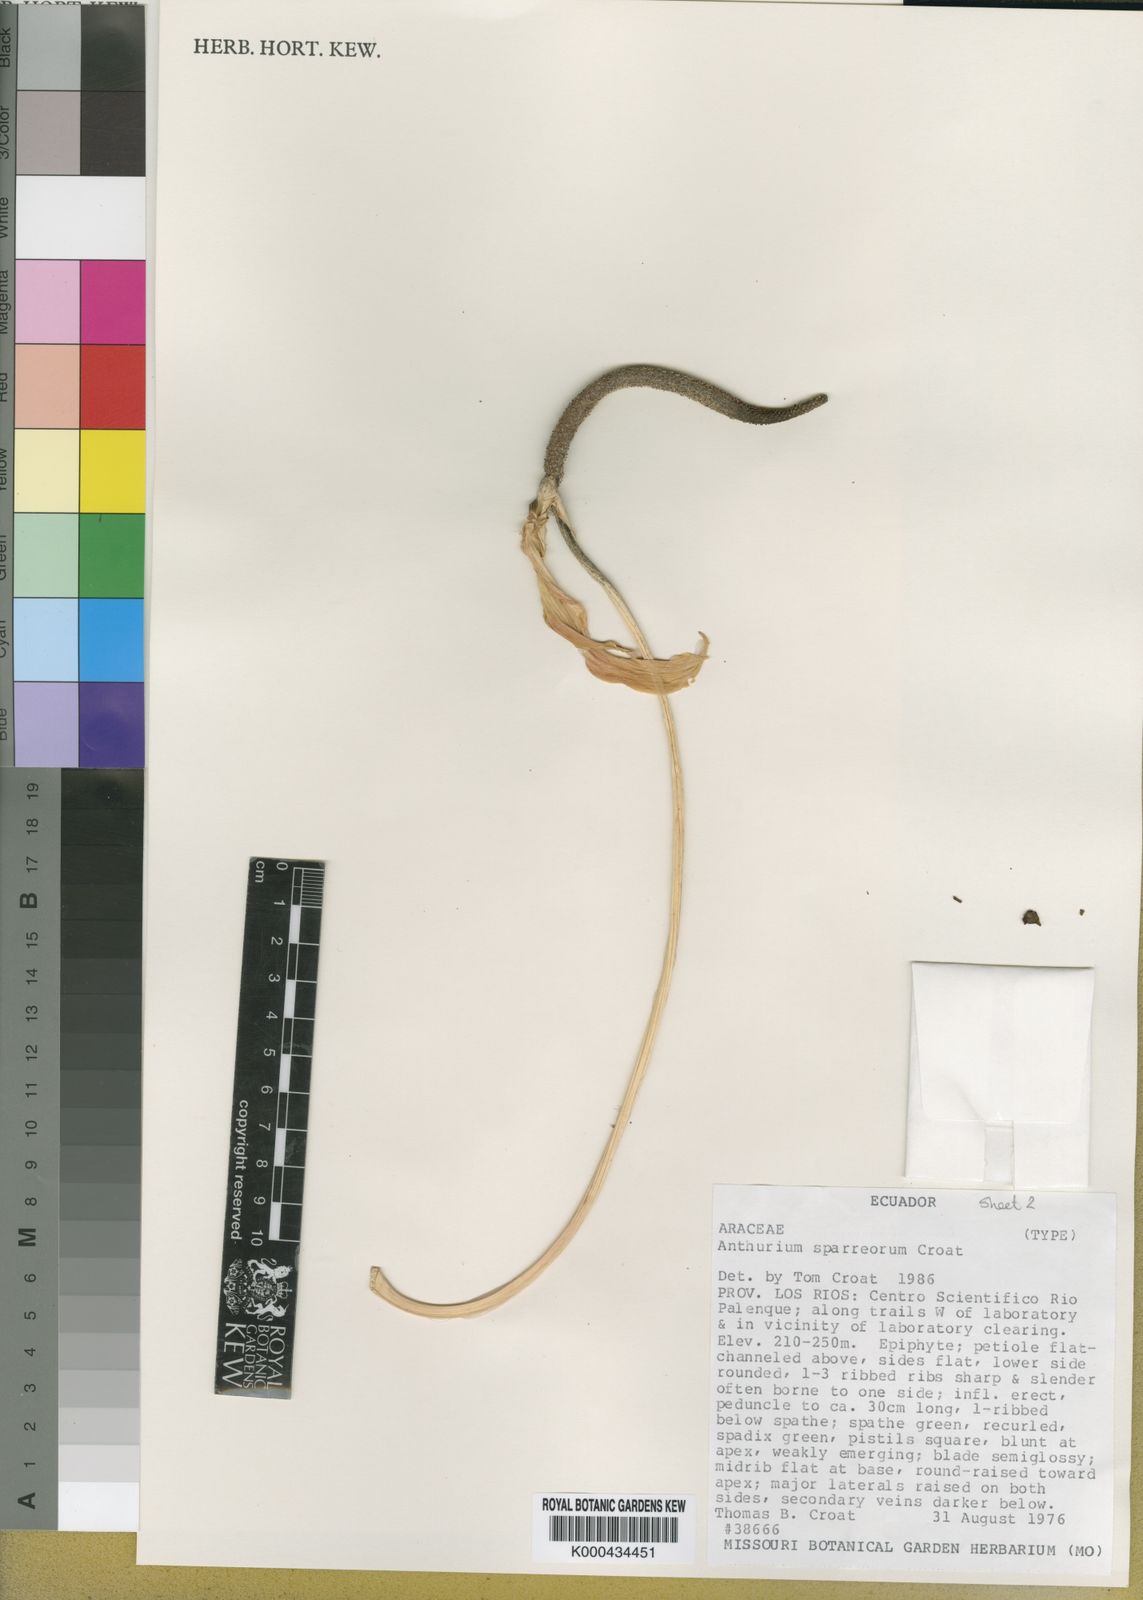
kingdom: Plantae
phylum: Tracheophyta
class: Liliopsida
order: Alismatales
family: Araceae
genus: Anthurium
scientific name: Anthurium sparreorum
